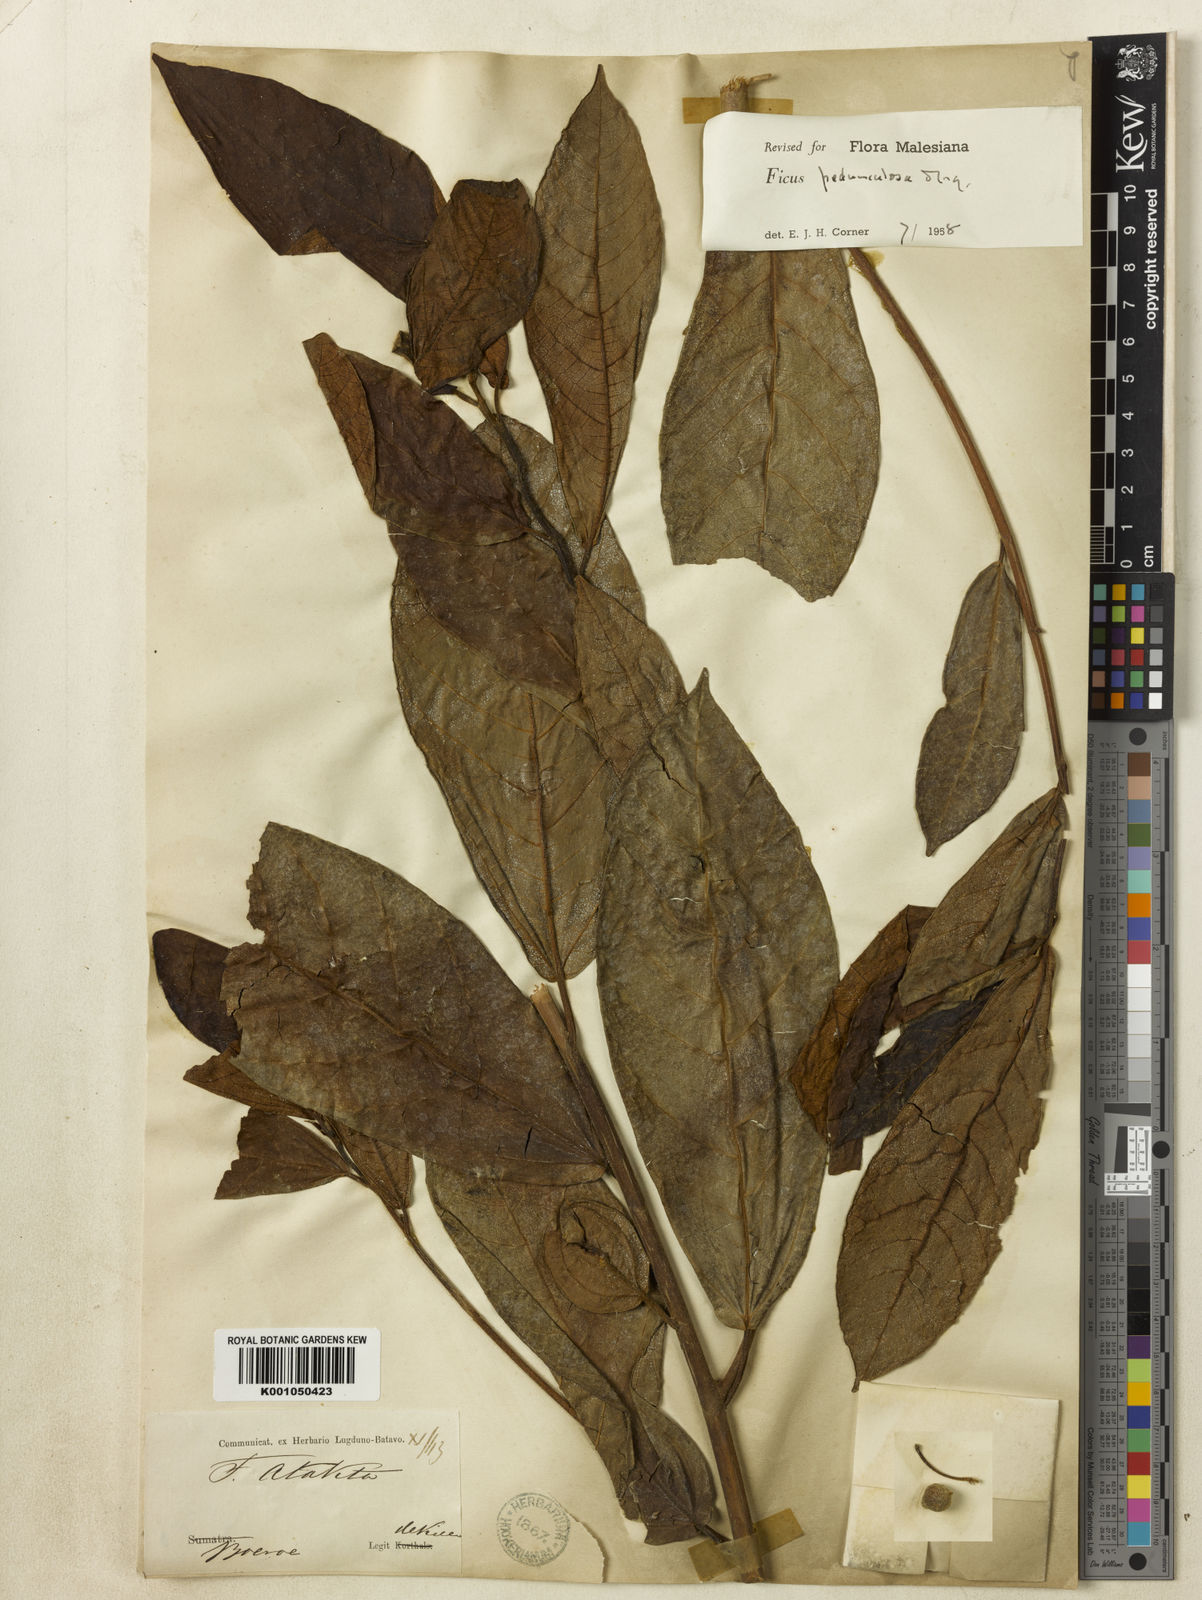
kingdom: Plantae
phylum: Tracheophyta
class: Magnoliopsida
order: Rosales
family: Moraceae
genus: Ficus
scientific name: Ficus pedunculosa
